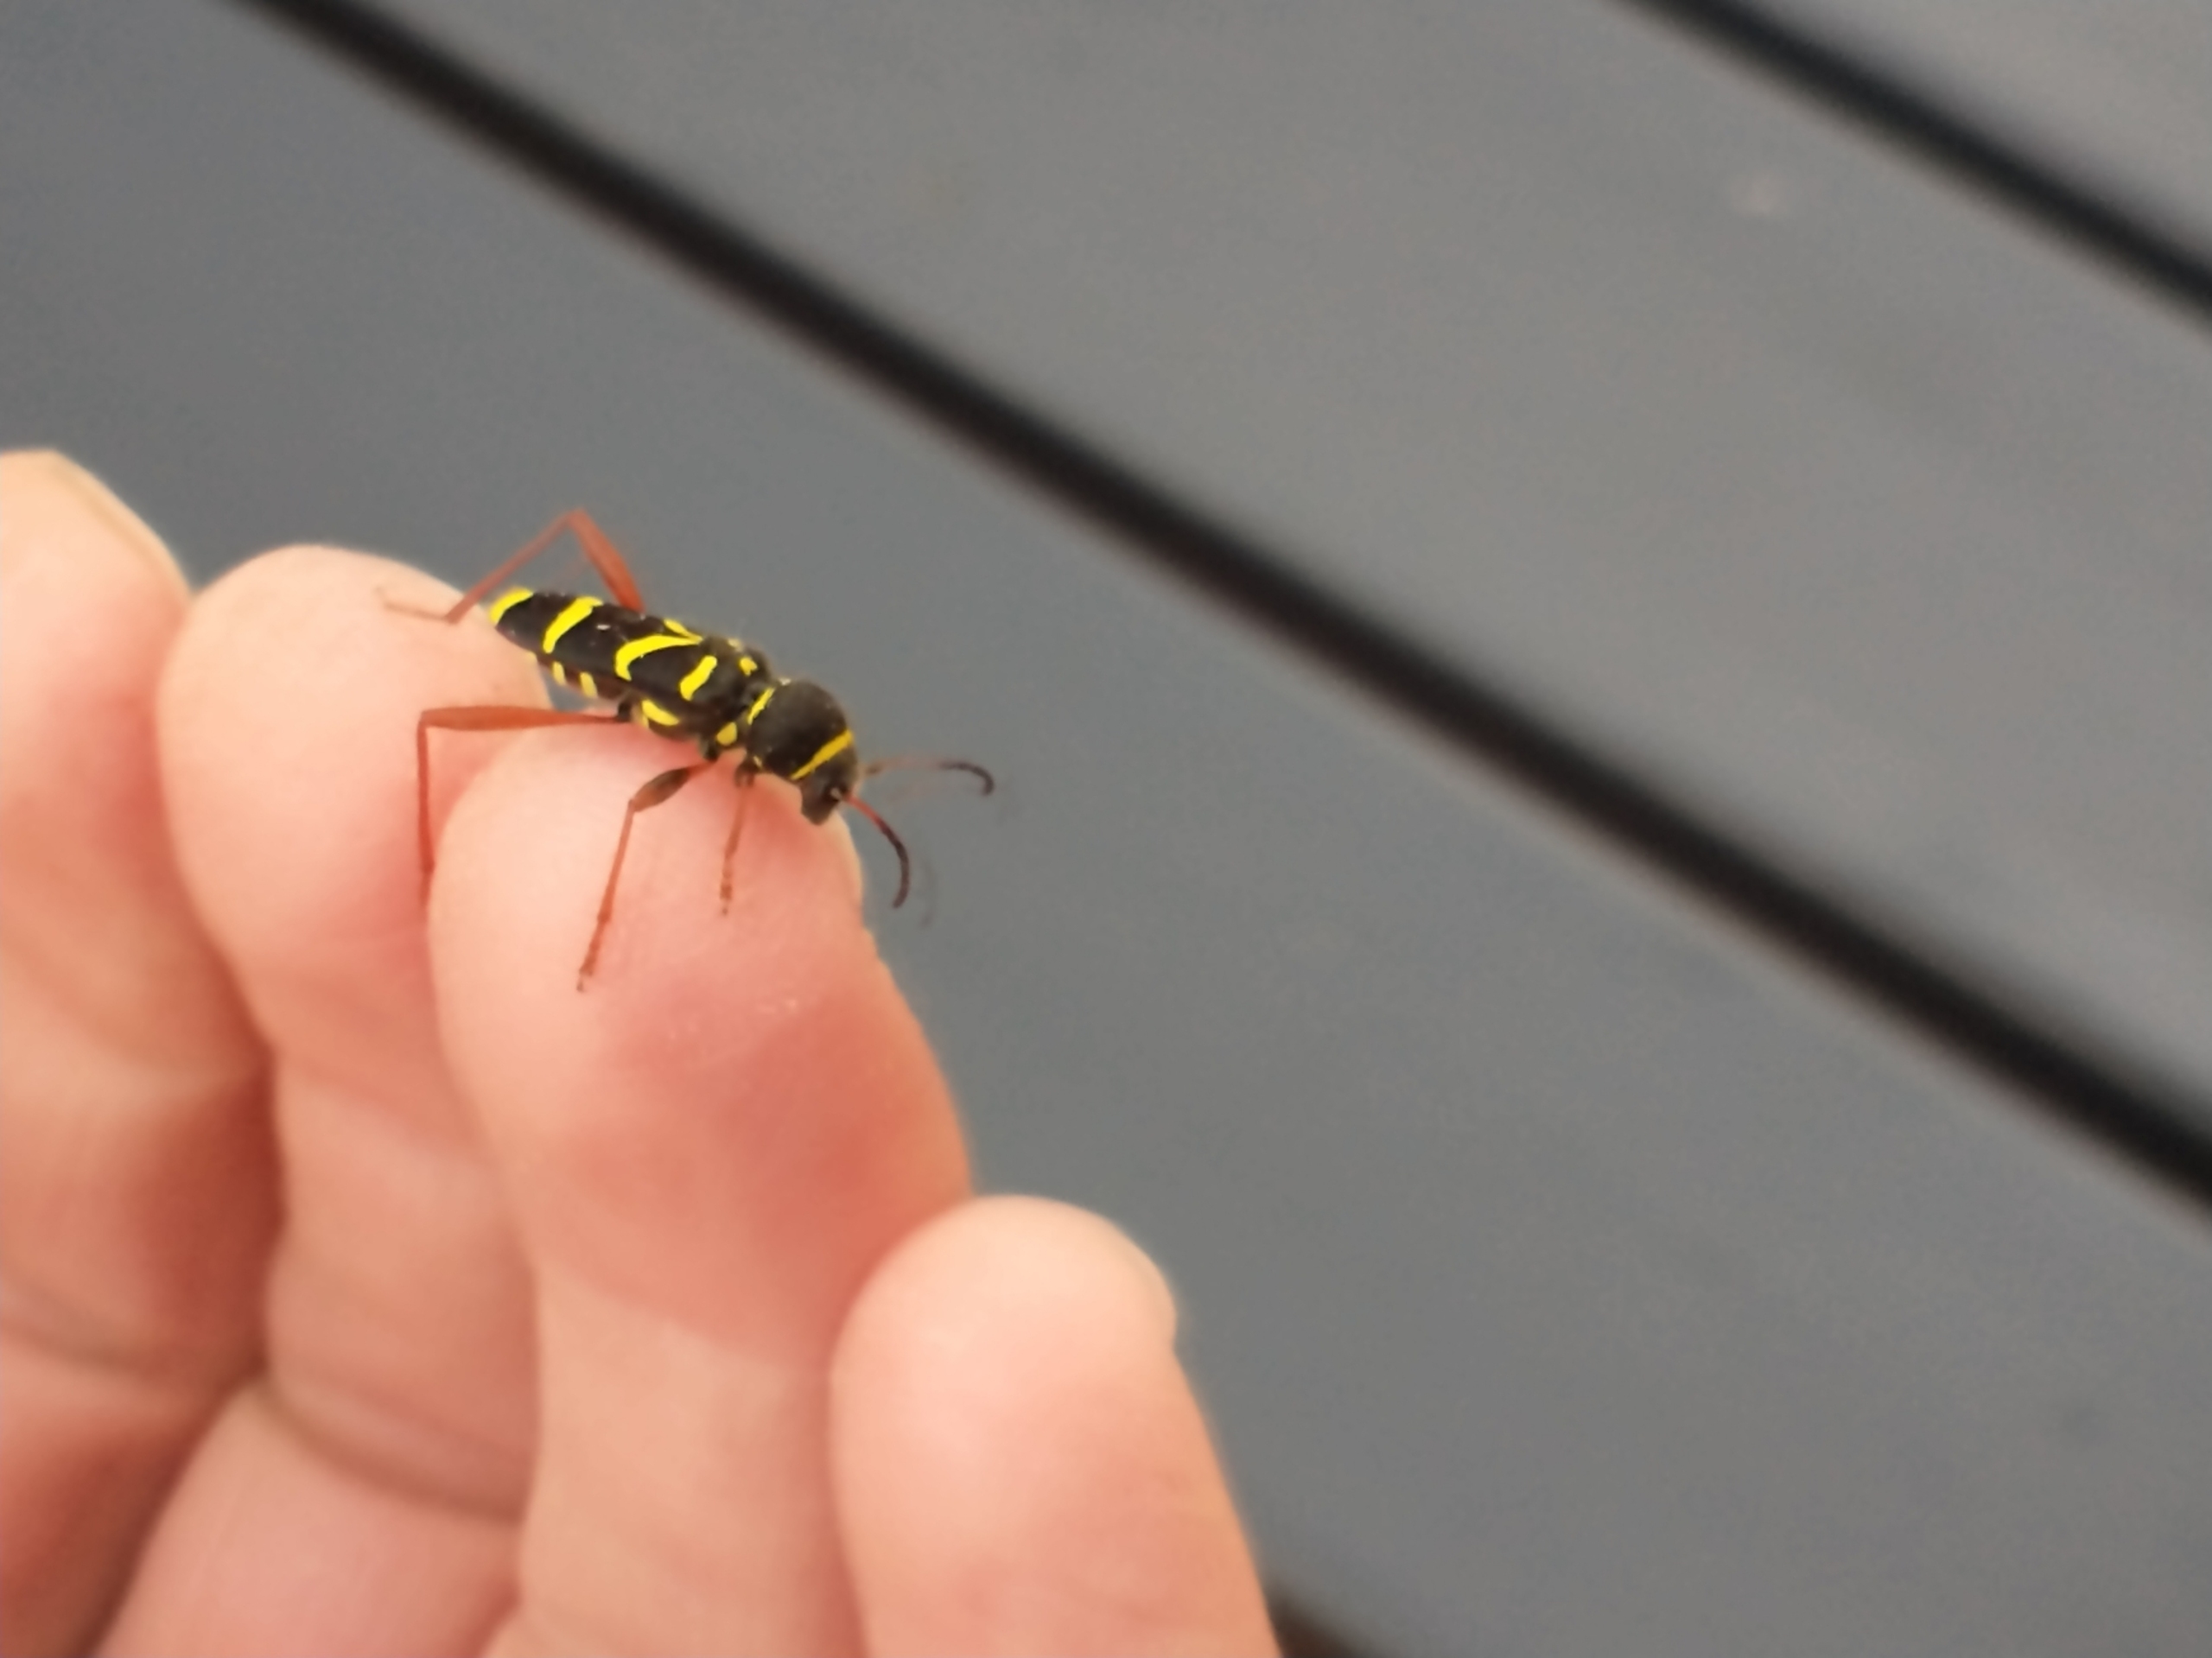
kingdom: Animalia
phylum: Arthropoda
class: Insecta
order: Coleoptera
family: Cerambycidae
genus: Clytus
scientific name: Clytus arietis
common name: Lille hvepsebuk
